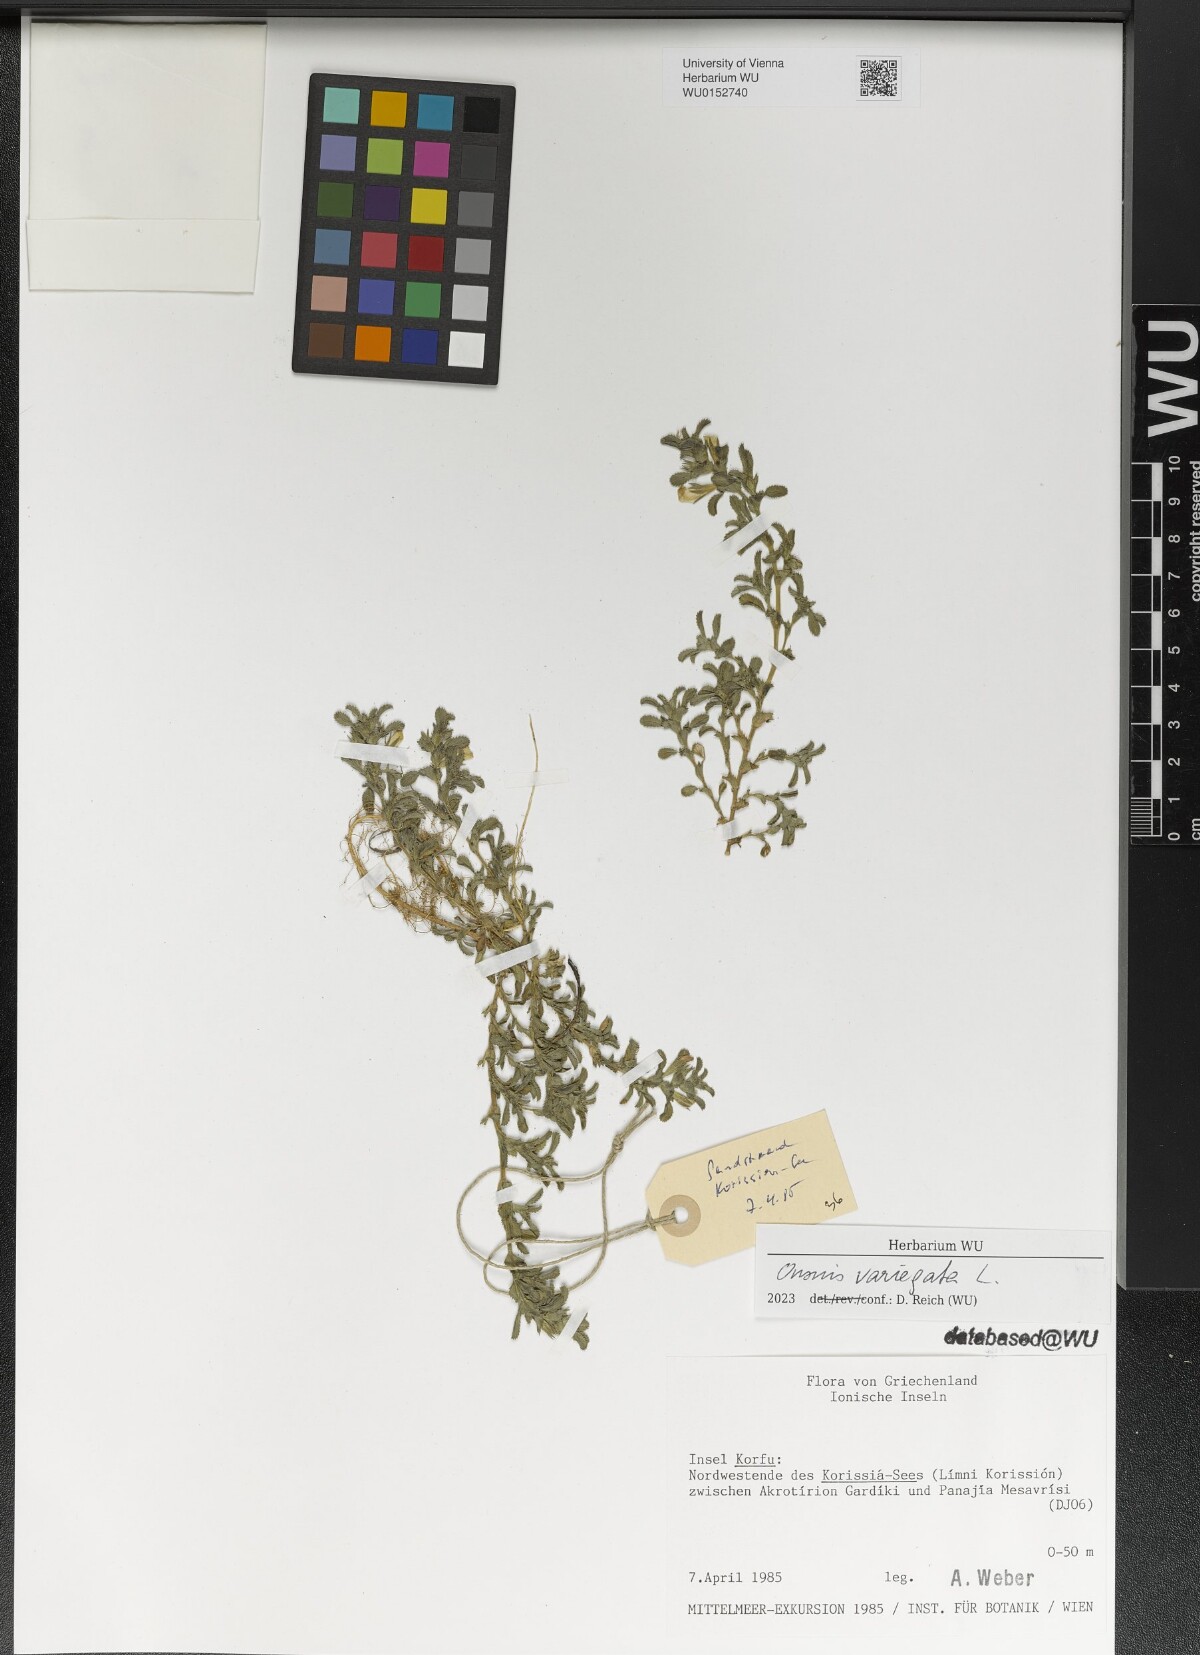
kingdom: Plantae
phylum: Tracheophyta
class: Magnoliopsida
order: Fabales
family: Fabaceae
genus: Ononis
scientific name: Ononis variegata
